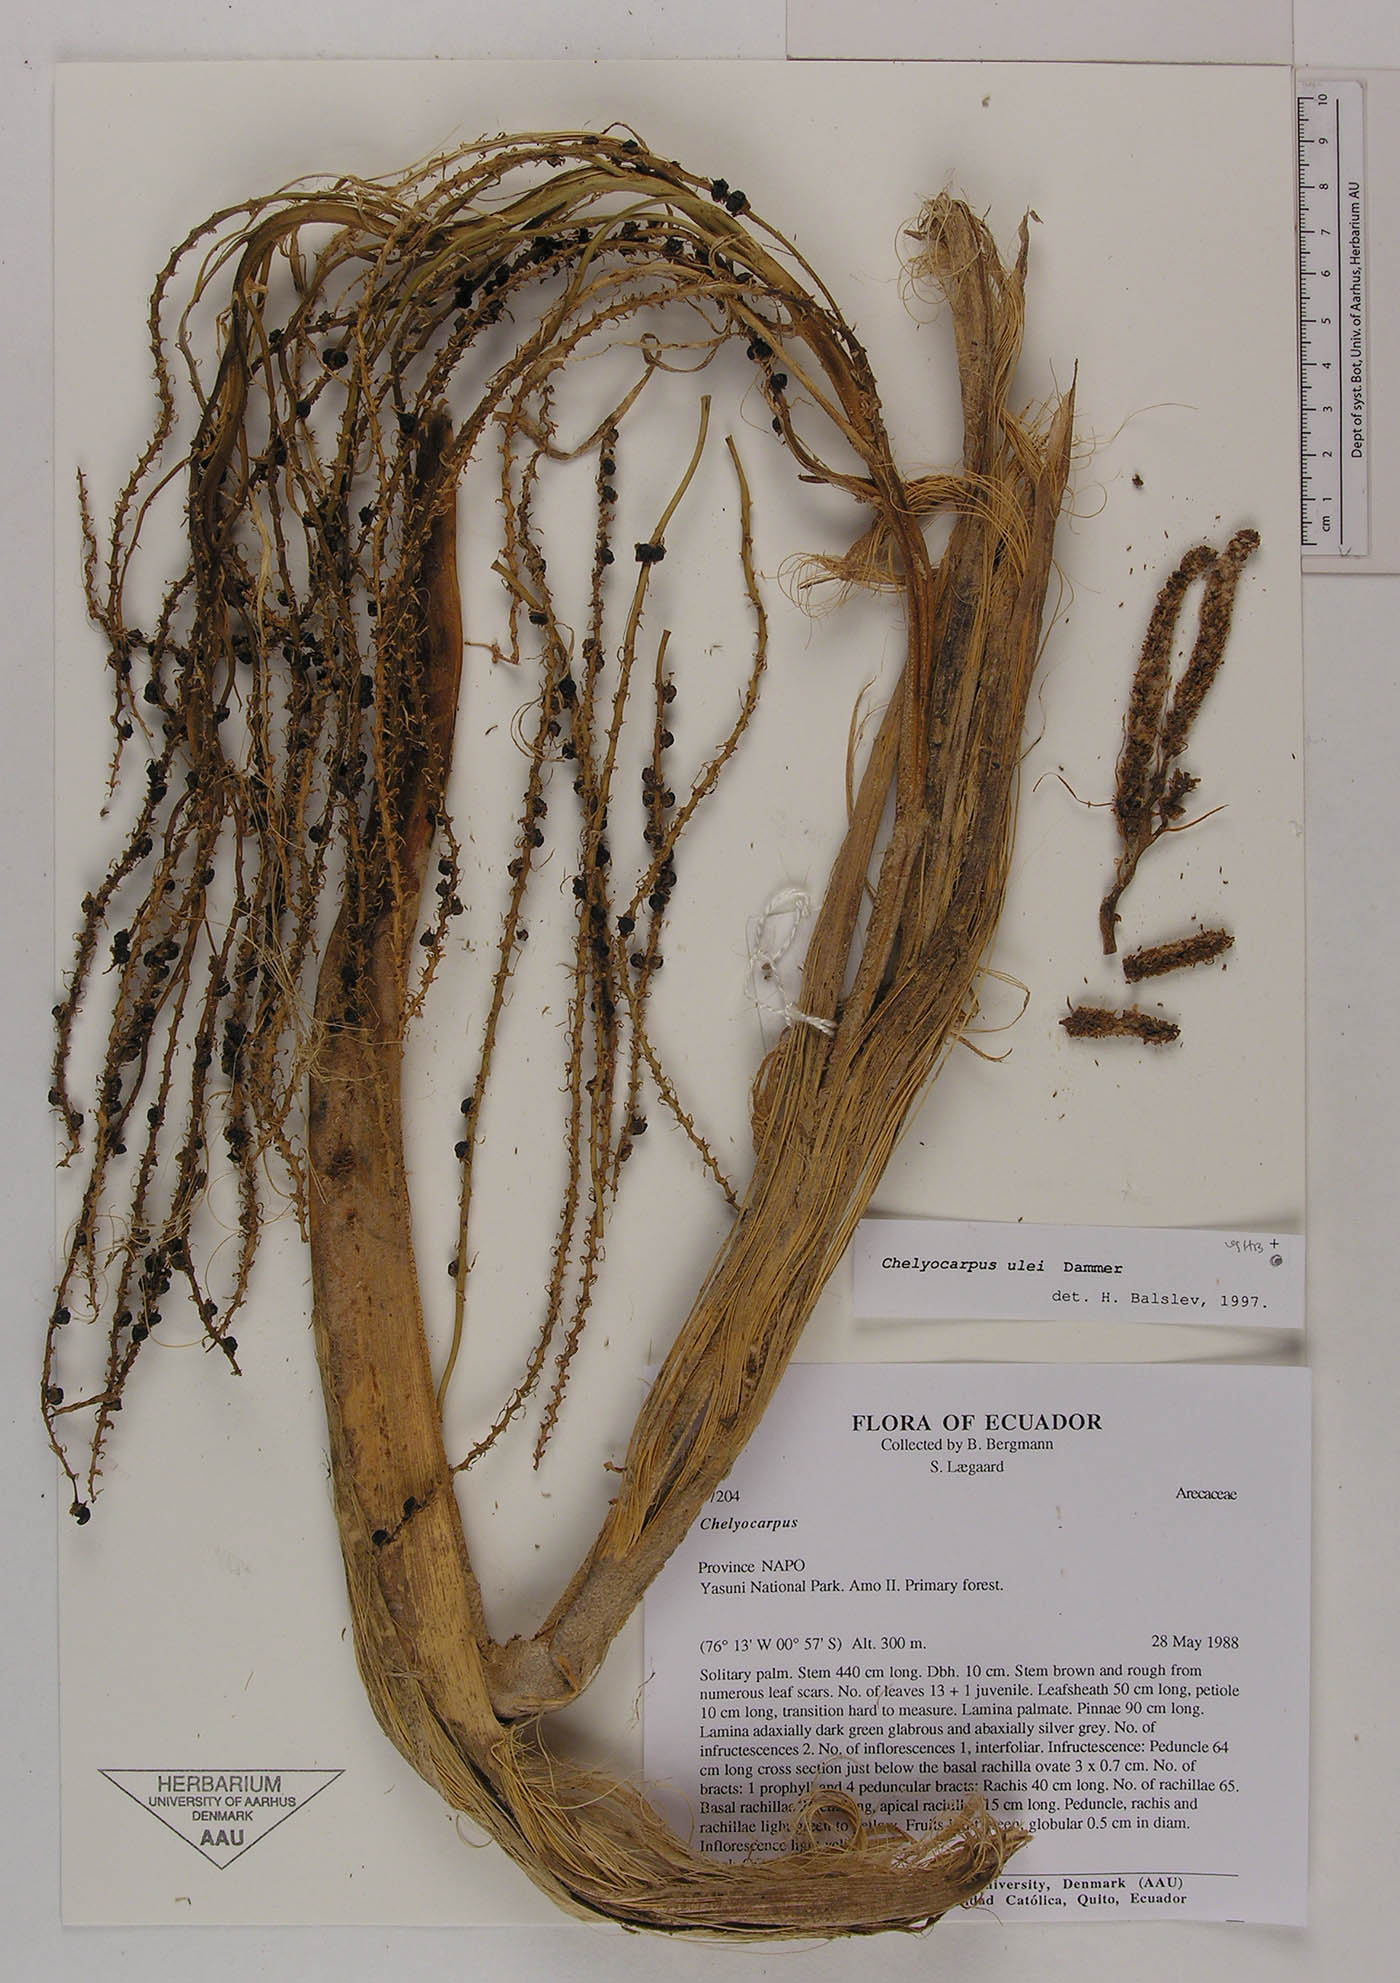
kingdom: Plantae
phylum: Tracheophyta
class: Liliopsida
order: Arecales
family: Arecaceae
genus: Chelyocarpus
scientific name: Chelyocarpus ulei
